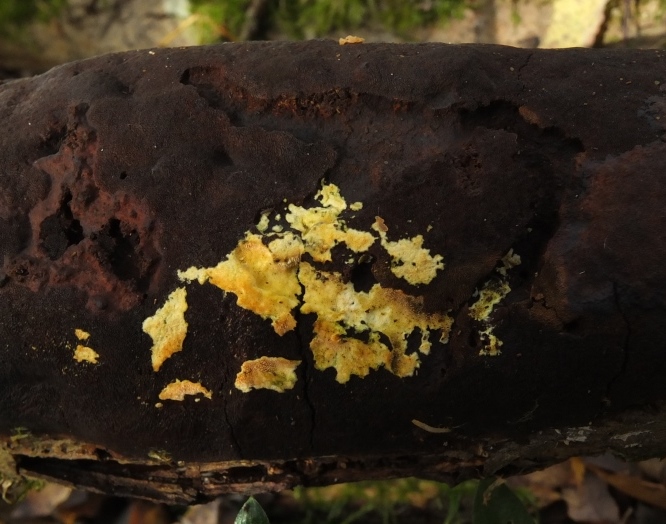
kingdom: Fungi
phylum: Basidiomycota
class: Agaricomycetes
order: Polyporales
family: Meruliaceae
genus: Mycoaciella
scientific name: Mycoaciella bispora
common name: stalaktit-vokspig
